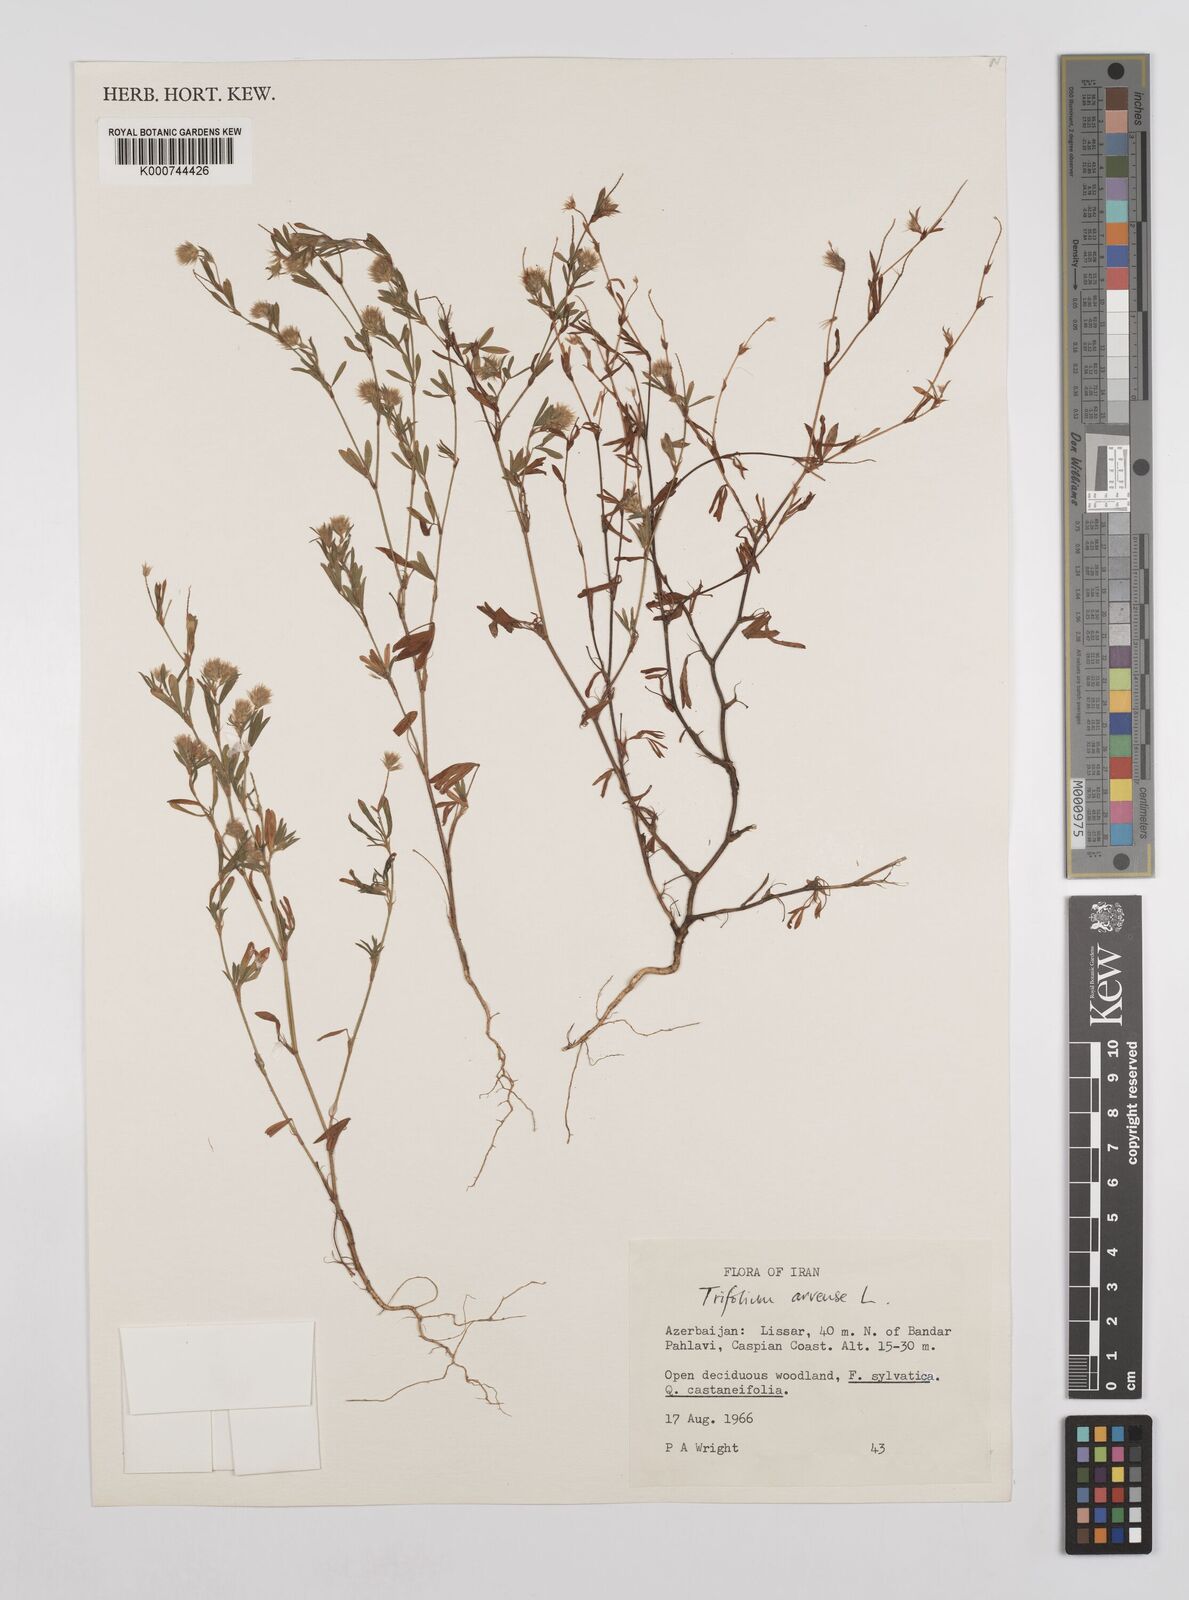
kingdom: Plantae
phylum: Tracheophyta
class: Magnoliopsida
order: Fabales
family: Fabaceae
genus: Trifolium
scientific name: Trifolium arvense
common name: Hare's-foot clover
